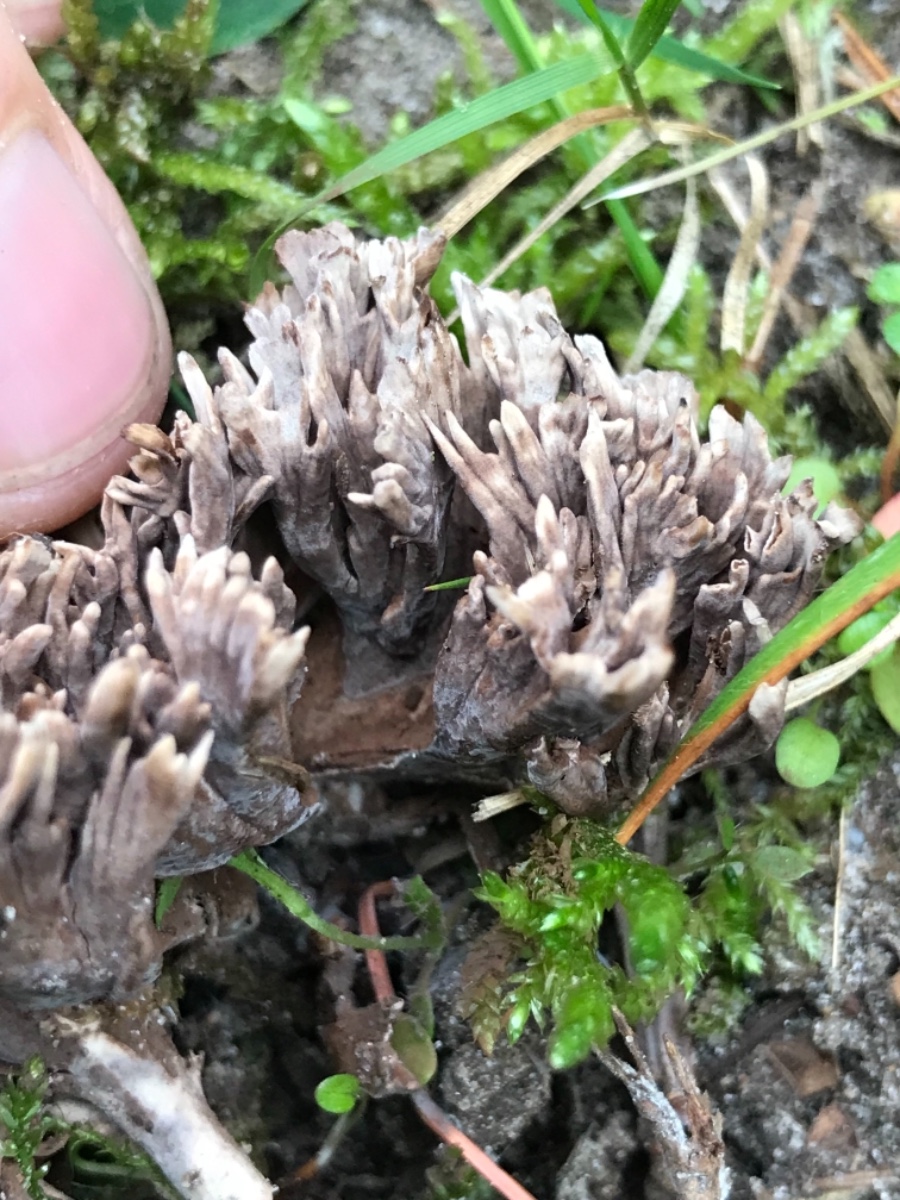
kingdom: Fungi
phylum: Basidiomycota
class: Agaricomycetes
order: Thelephorales
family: Thelephoraceae
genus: Thelephora
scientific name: Thelephora palmata
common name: grenet frynsesvamp
